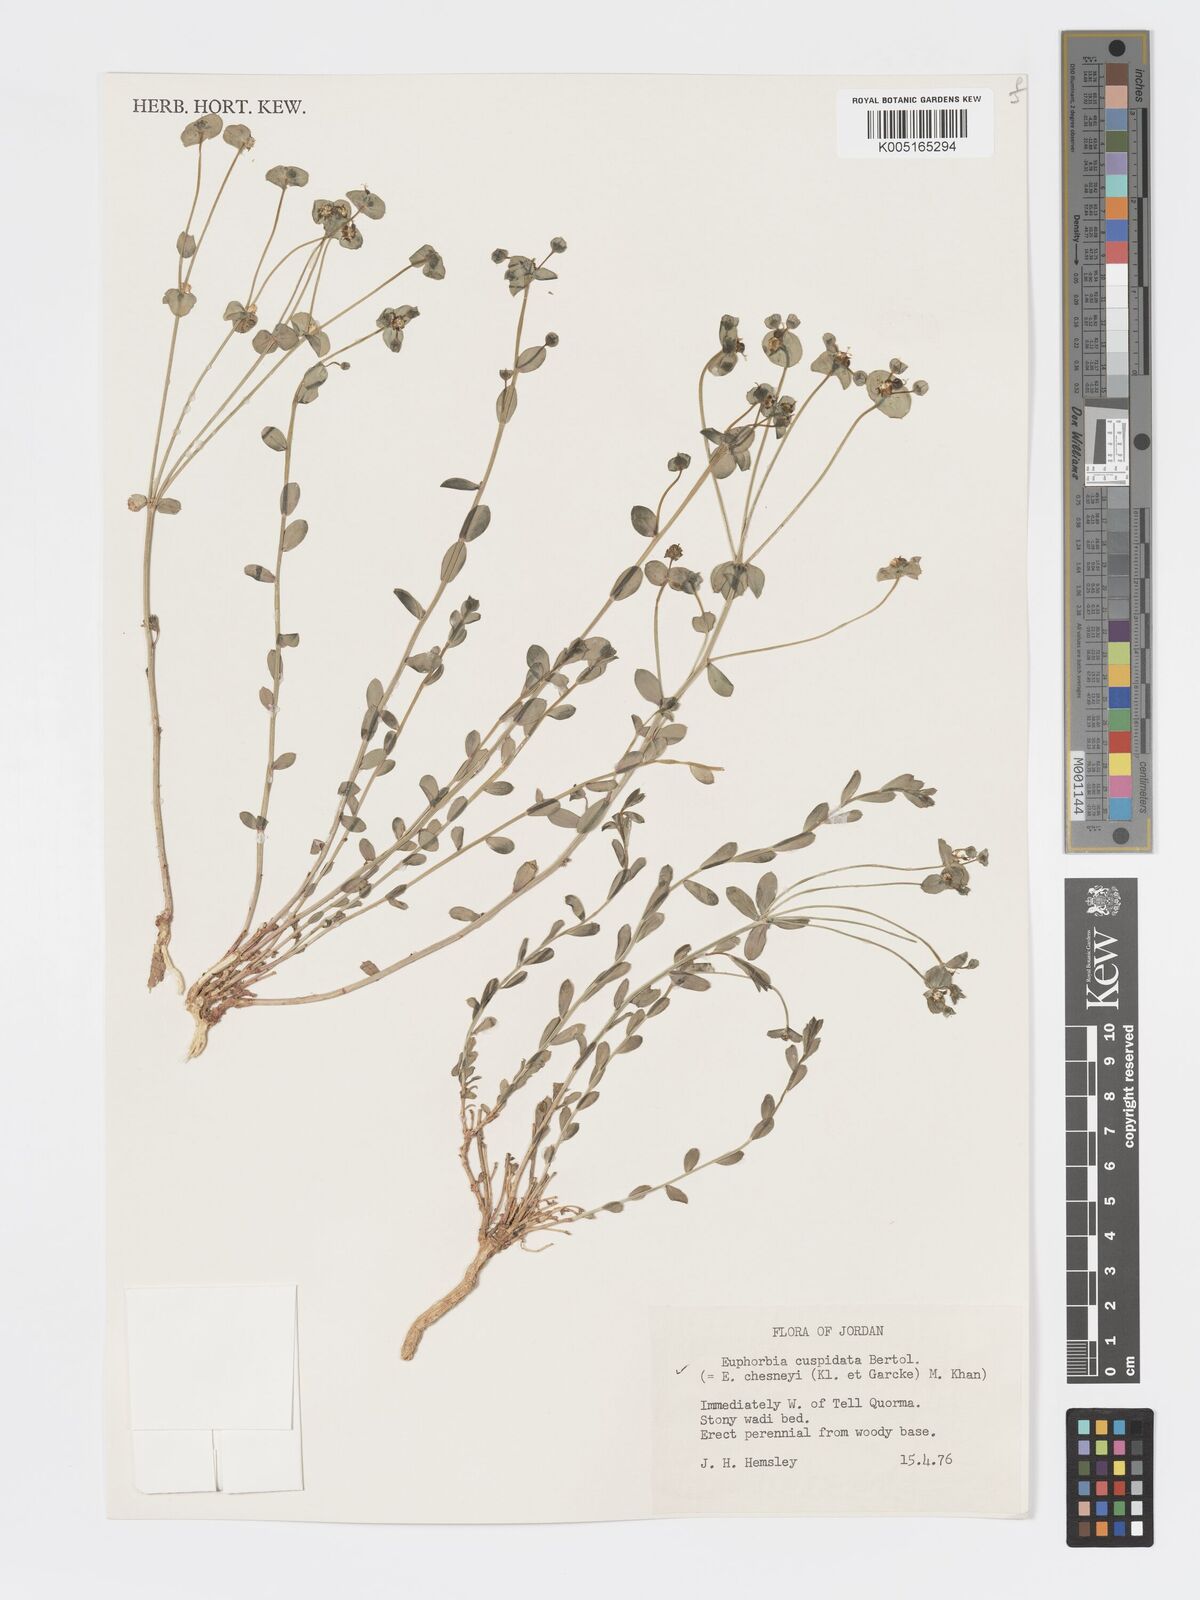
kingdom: Plantae
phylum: Tracheophyta
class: Magnoliopsida
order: Malpighiales
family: Euphorbiaceae
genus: Euphorbia
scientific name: Euphorbia
